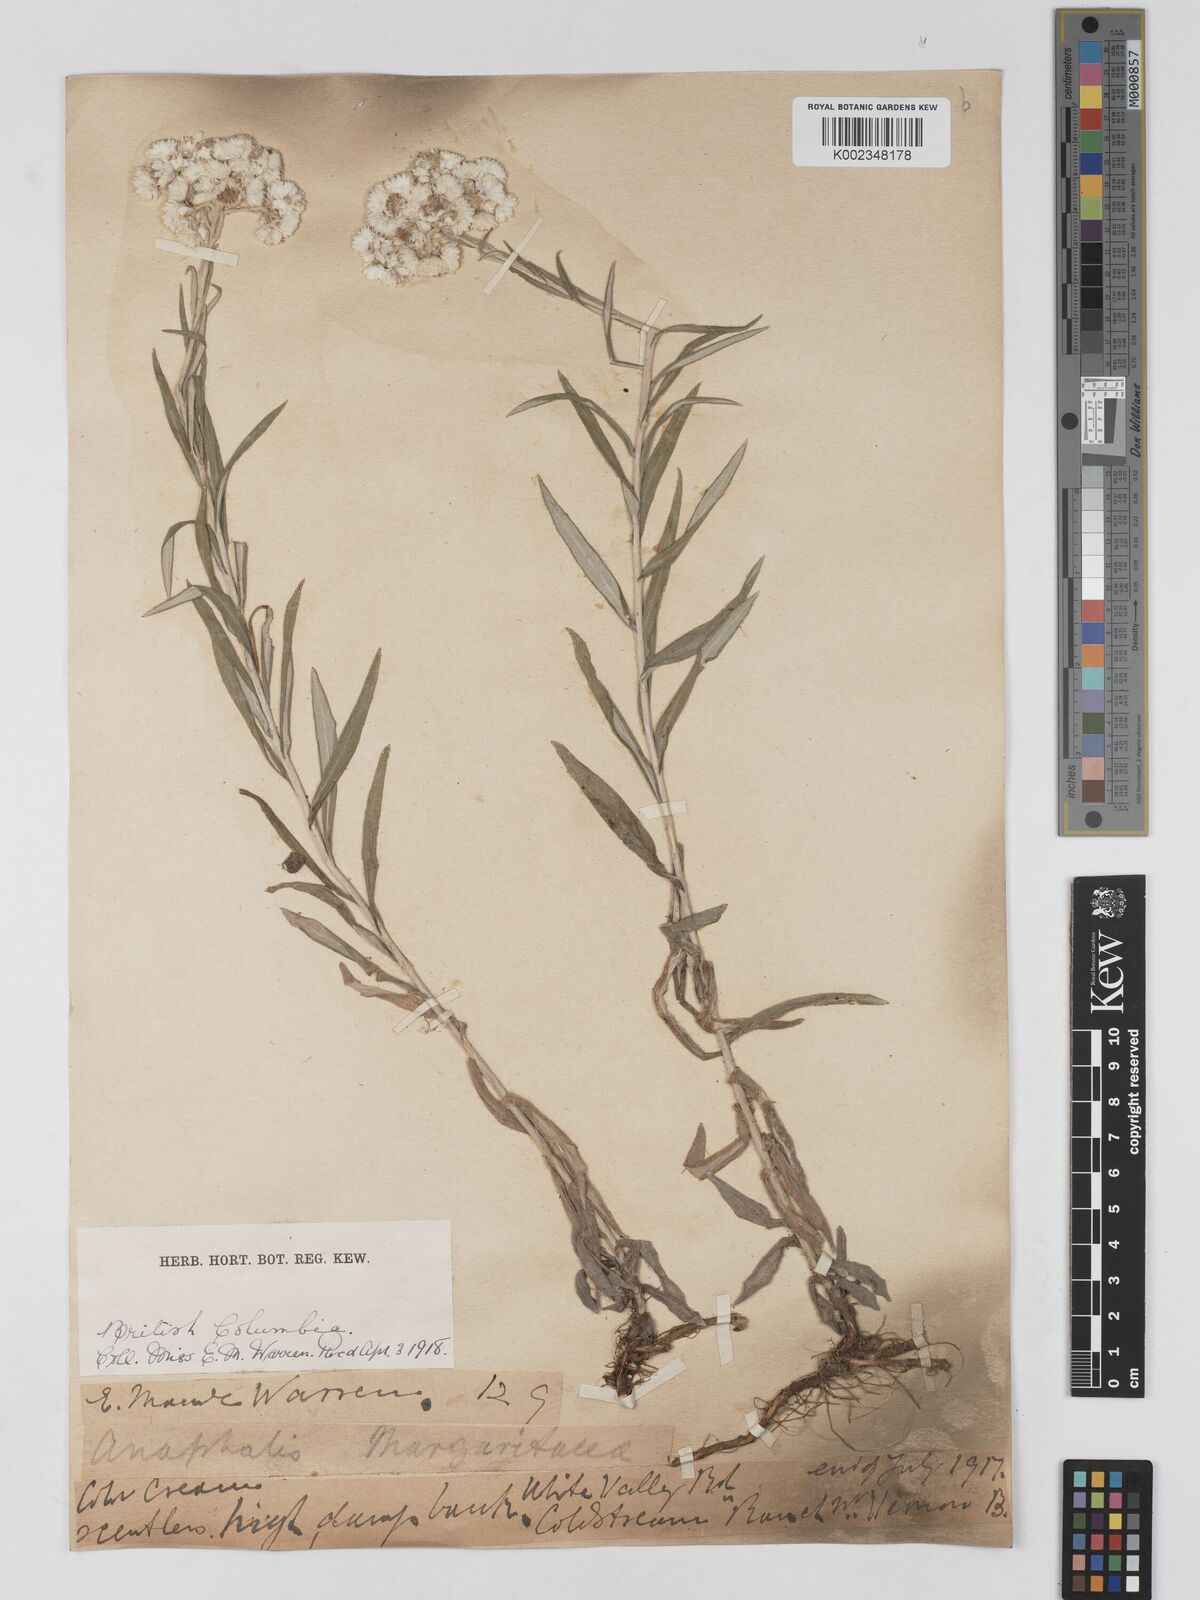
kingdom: Plantae
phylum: Tracheophyta
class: Magnoliopsida
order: Asterales
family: Asteraceae
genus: Anaphalis
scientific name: Anaphalis margaritacea
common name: Pearly everlasting
